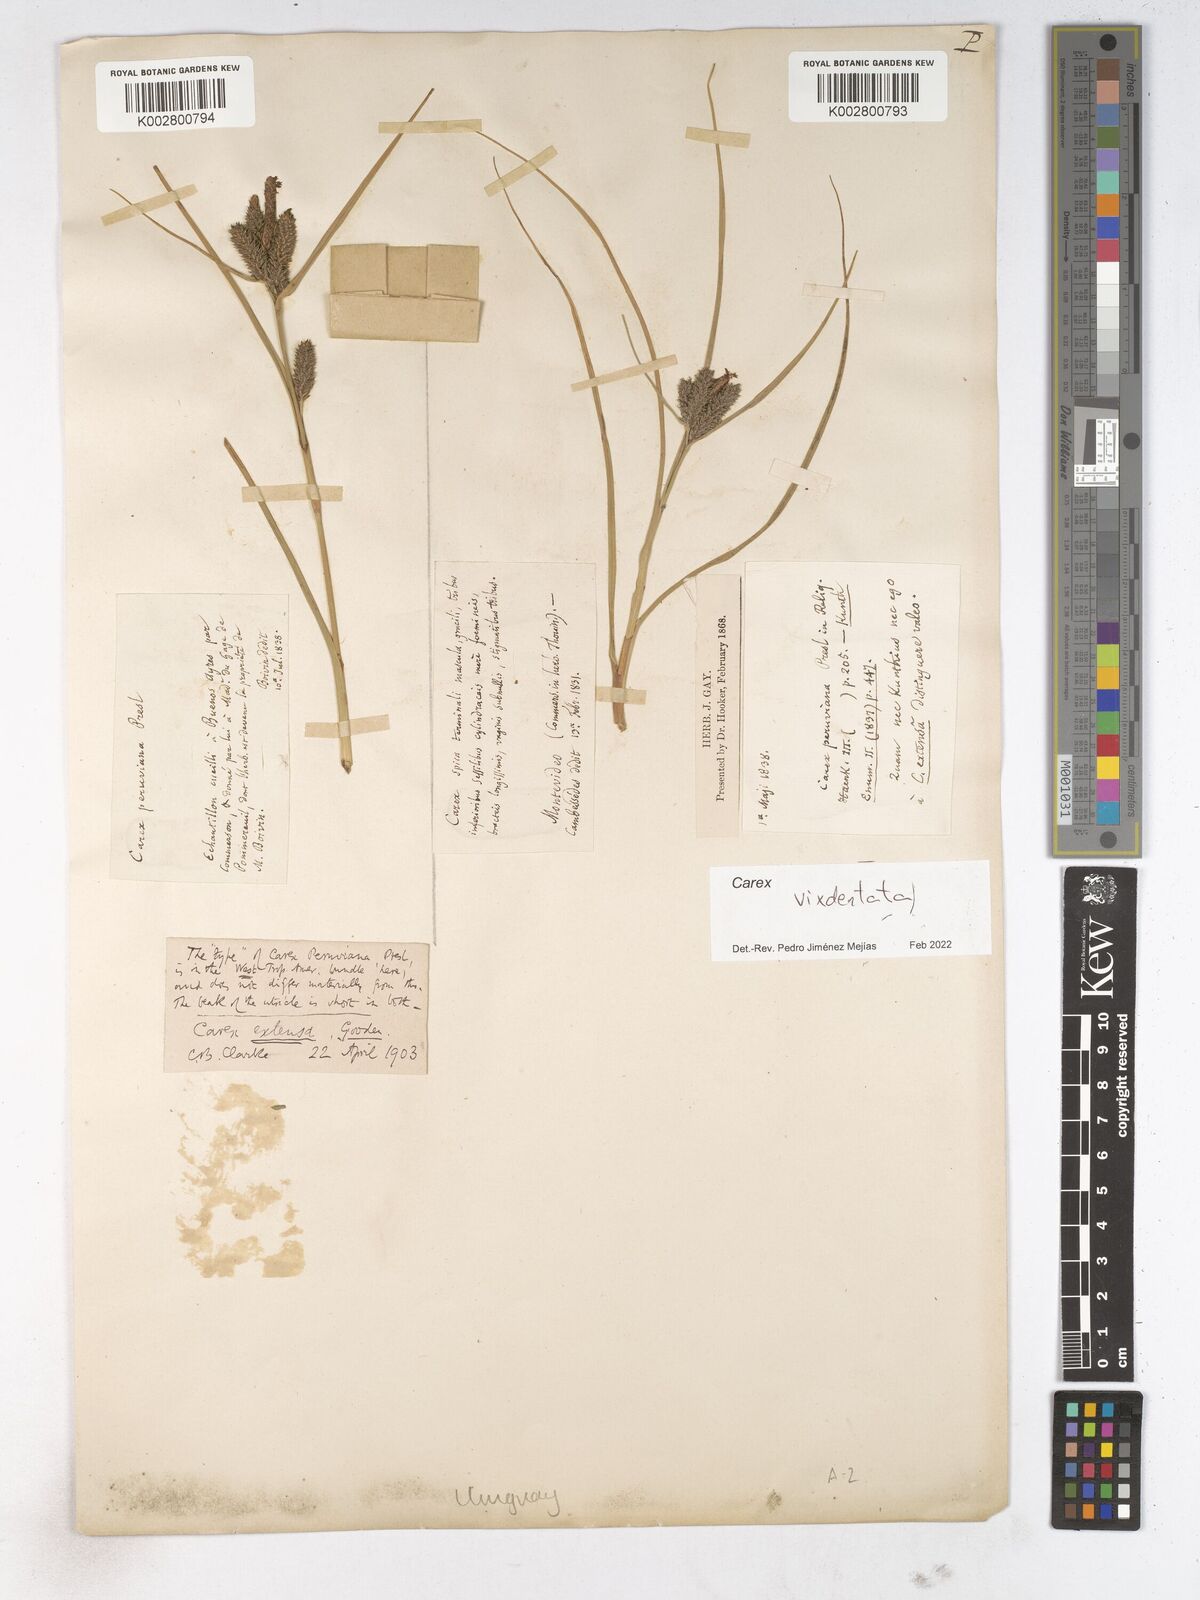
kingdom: Plantae
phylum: Tracheophyta
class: Liliopsida
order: Poales
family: Cyperaceae
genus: Carex
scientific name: Carex
